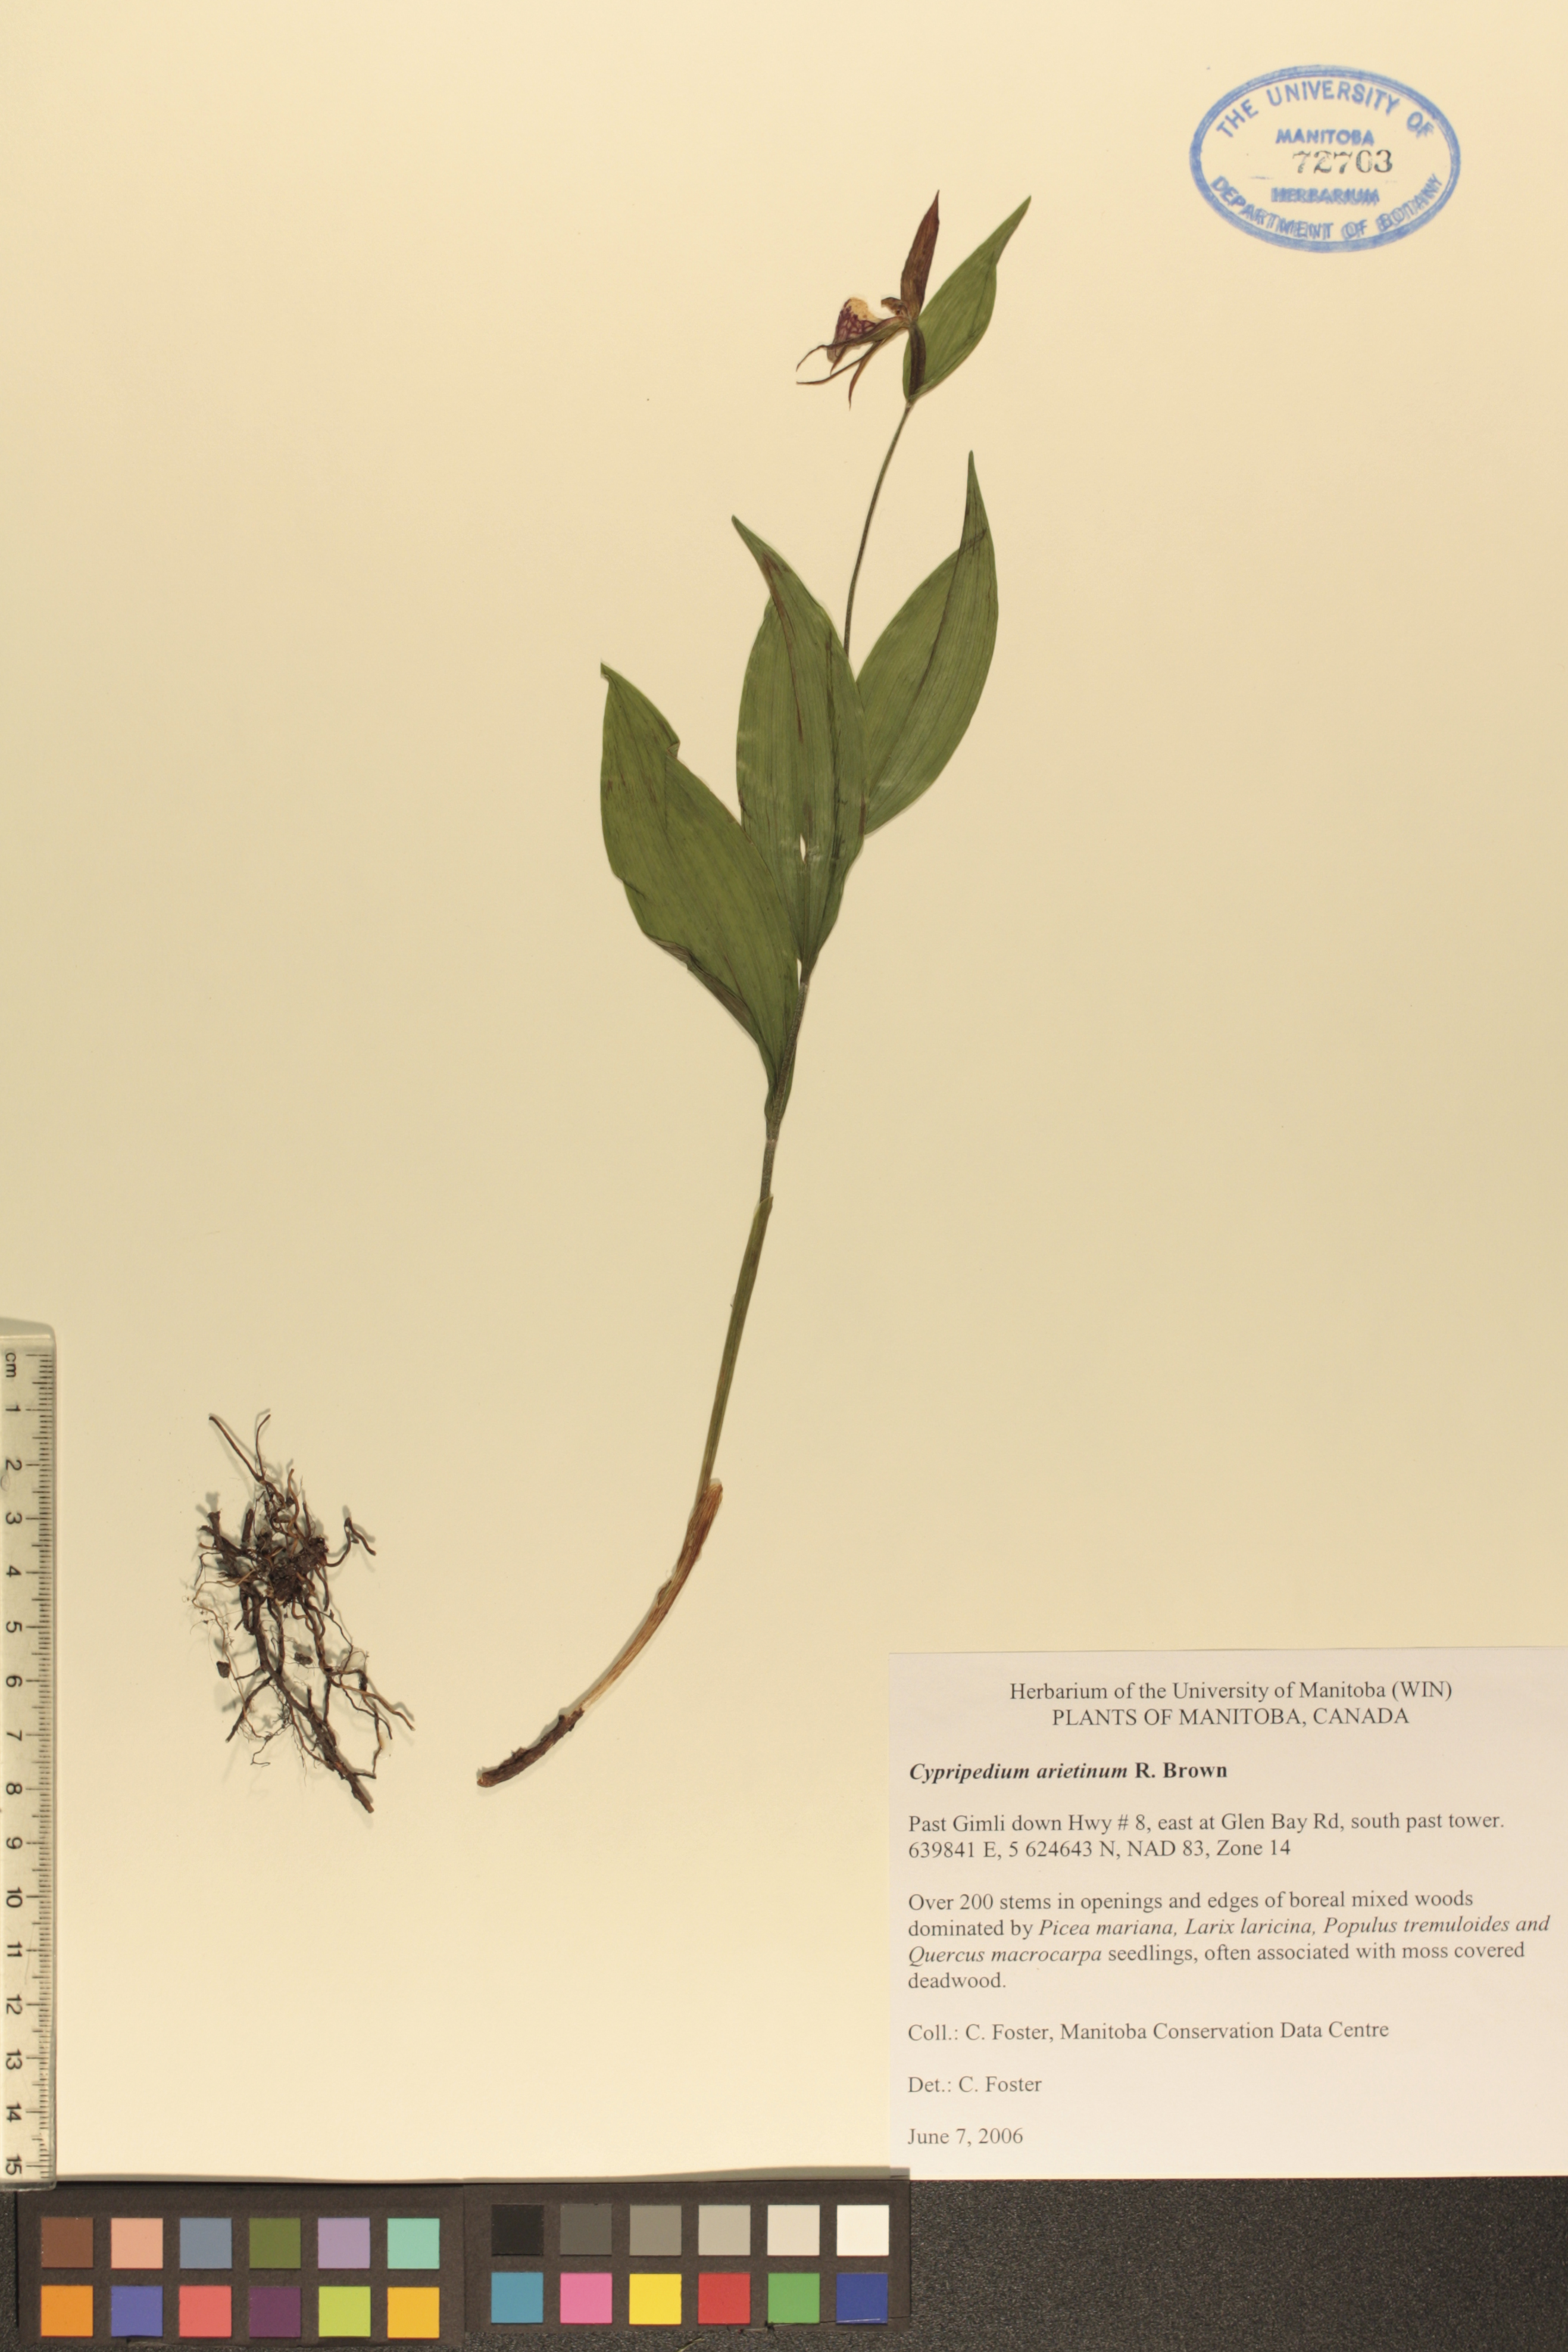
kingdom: Plantae
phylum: Tracheophyta
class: Liliopsida
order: Asparagales
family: Orchidaceae
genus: Cypripedium
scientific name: Cypripedium arietinum
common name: Ram's-head
